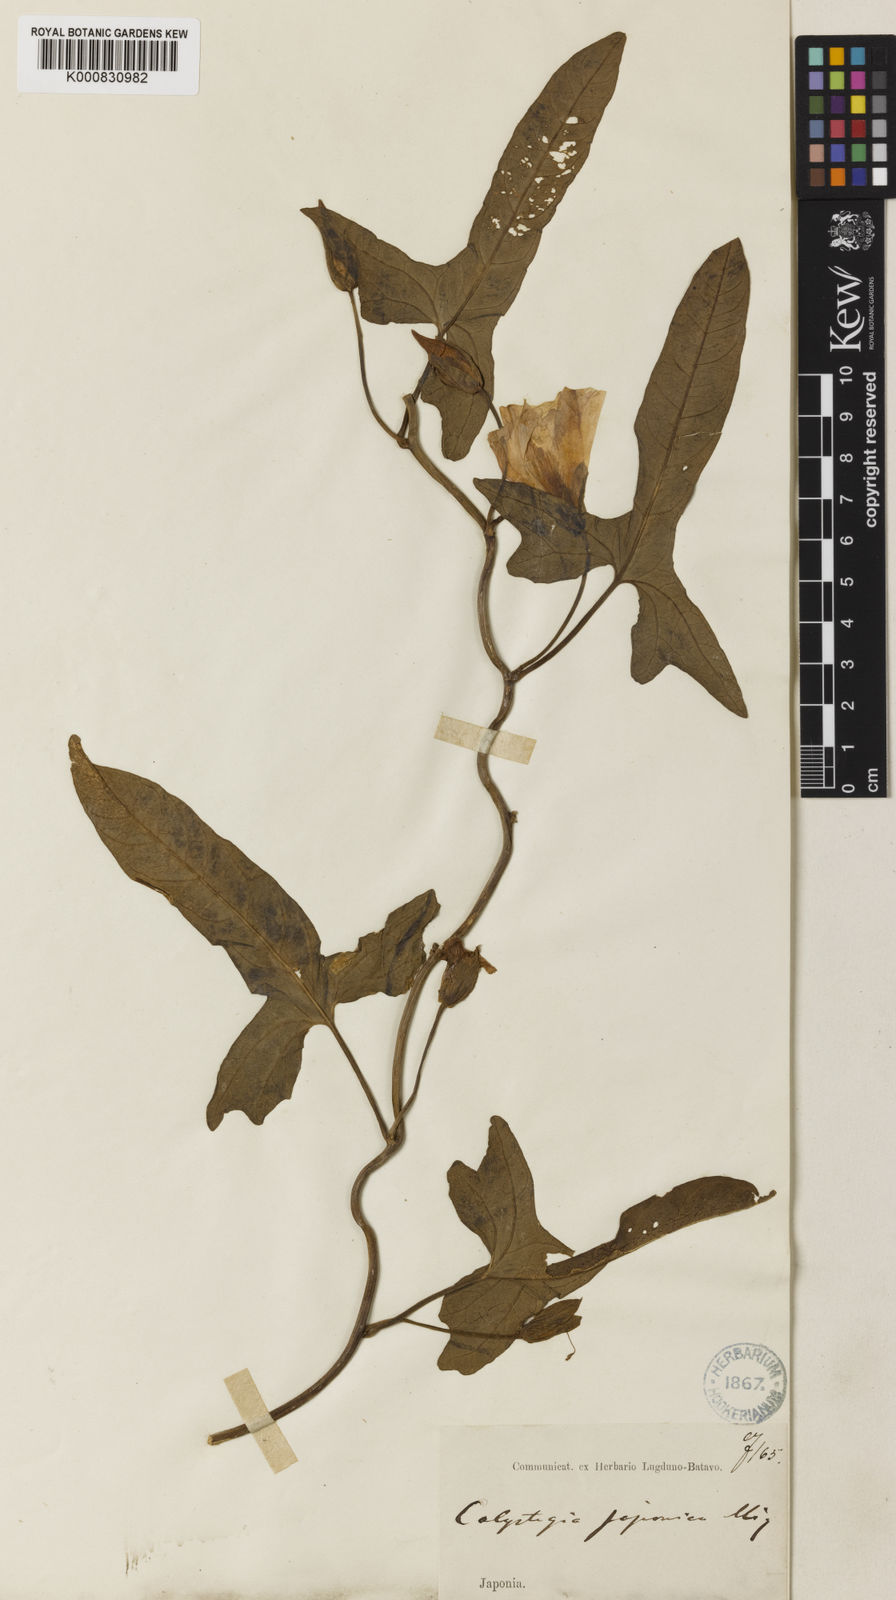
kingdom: Plantae
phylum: Tracheophyta
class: Magnoliopsida
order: Solanales
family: Convolvulaceae
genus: Calystegia
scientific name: Calystegia pubescens
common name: Japanese bindweed
